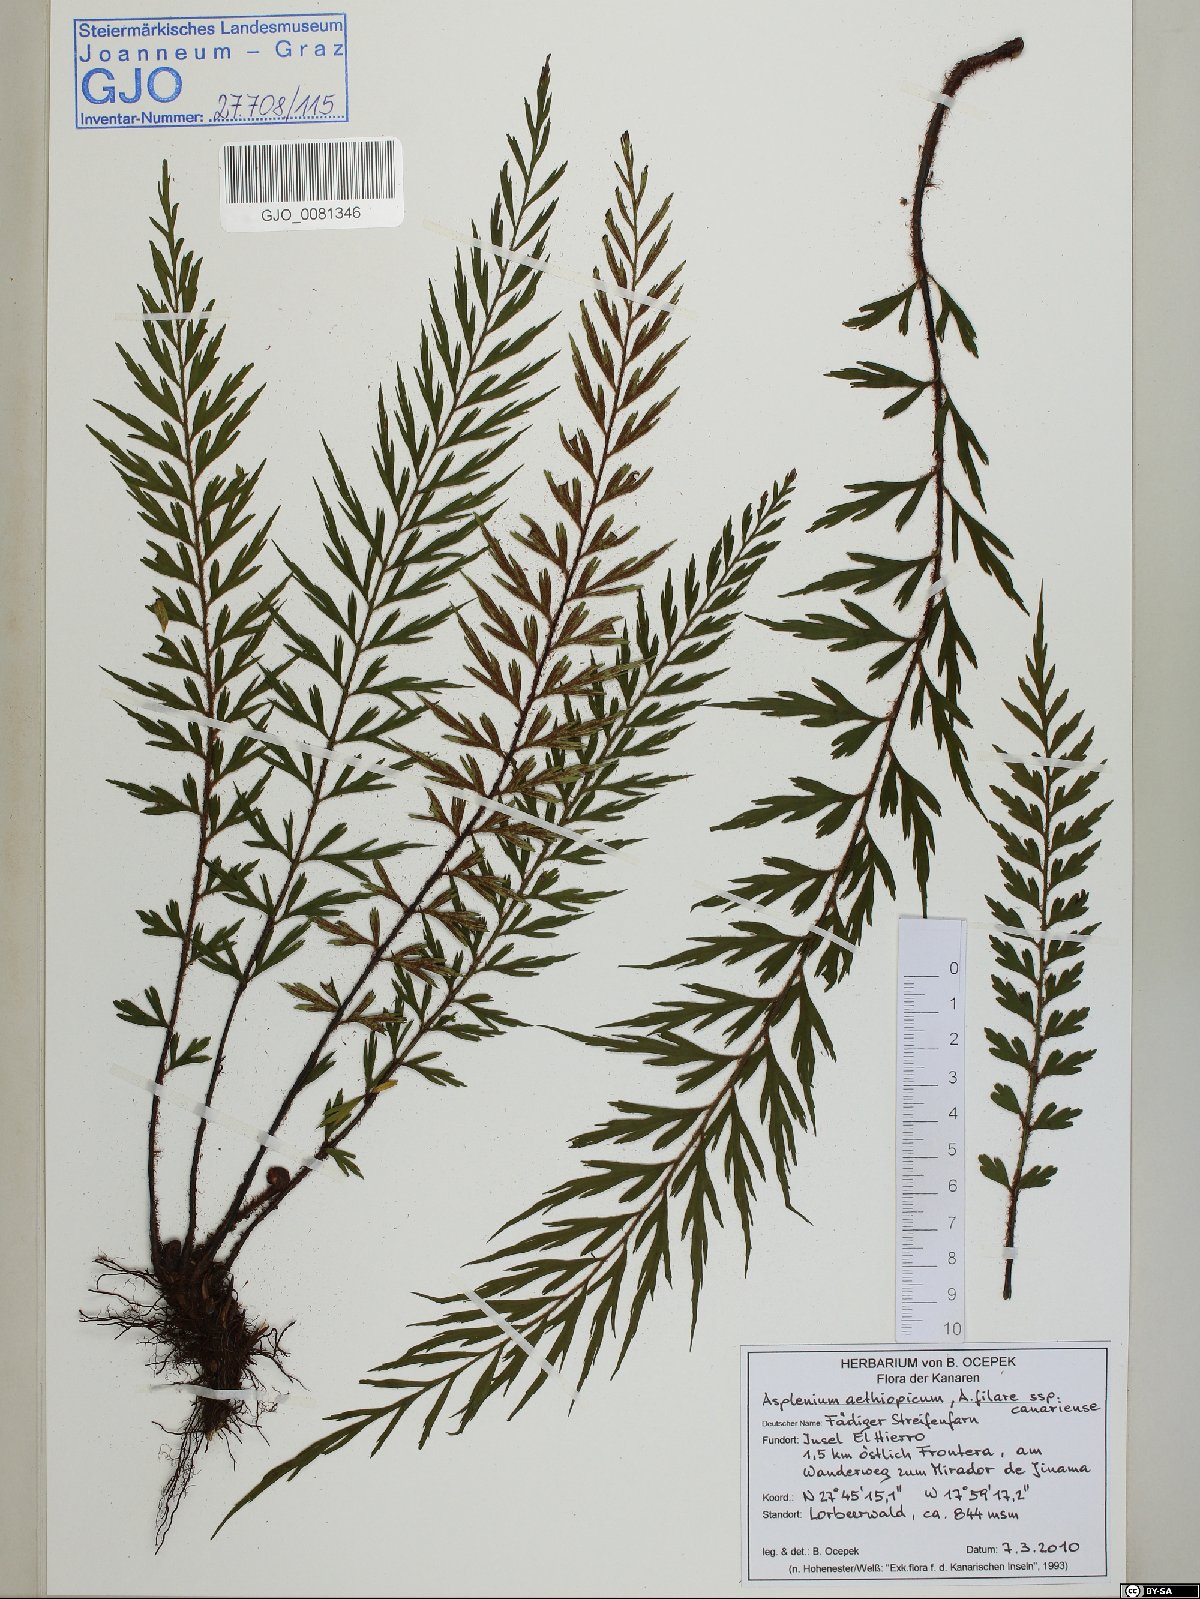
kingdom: Plantae
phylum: Tracheophyta
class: Polypodiopsida
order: Polypodiales
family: Aspleniaceae
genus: Asplenium
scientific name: Asplenium aethiopicum
